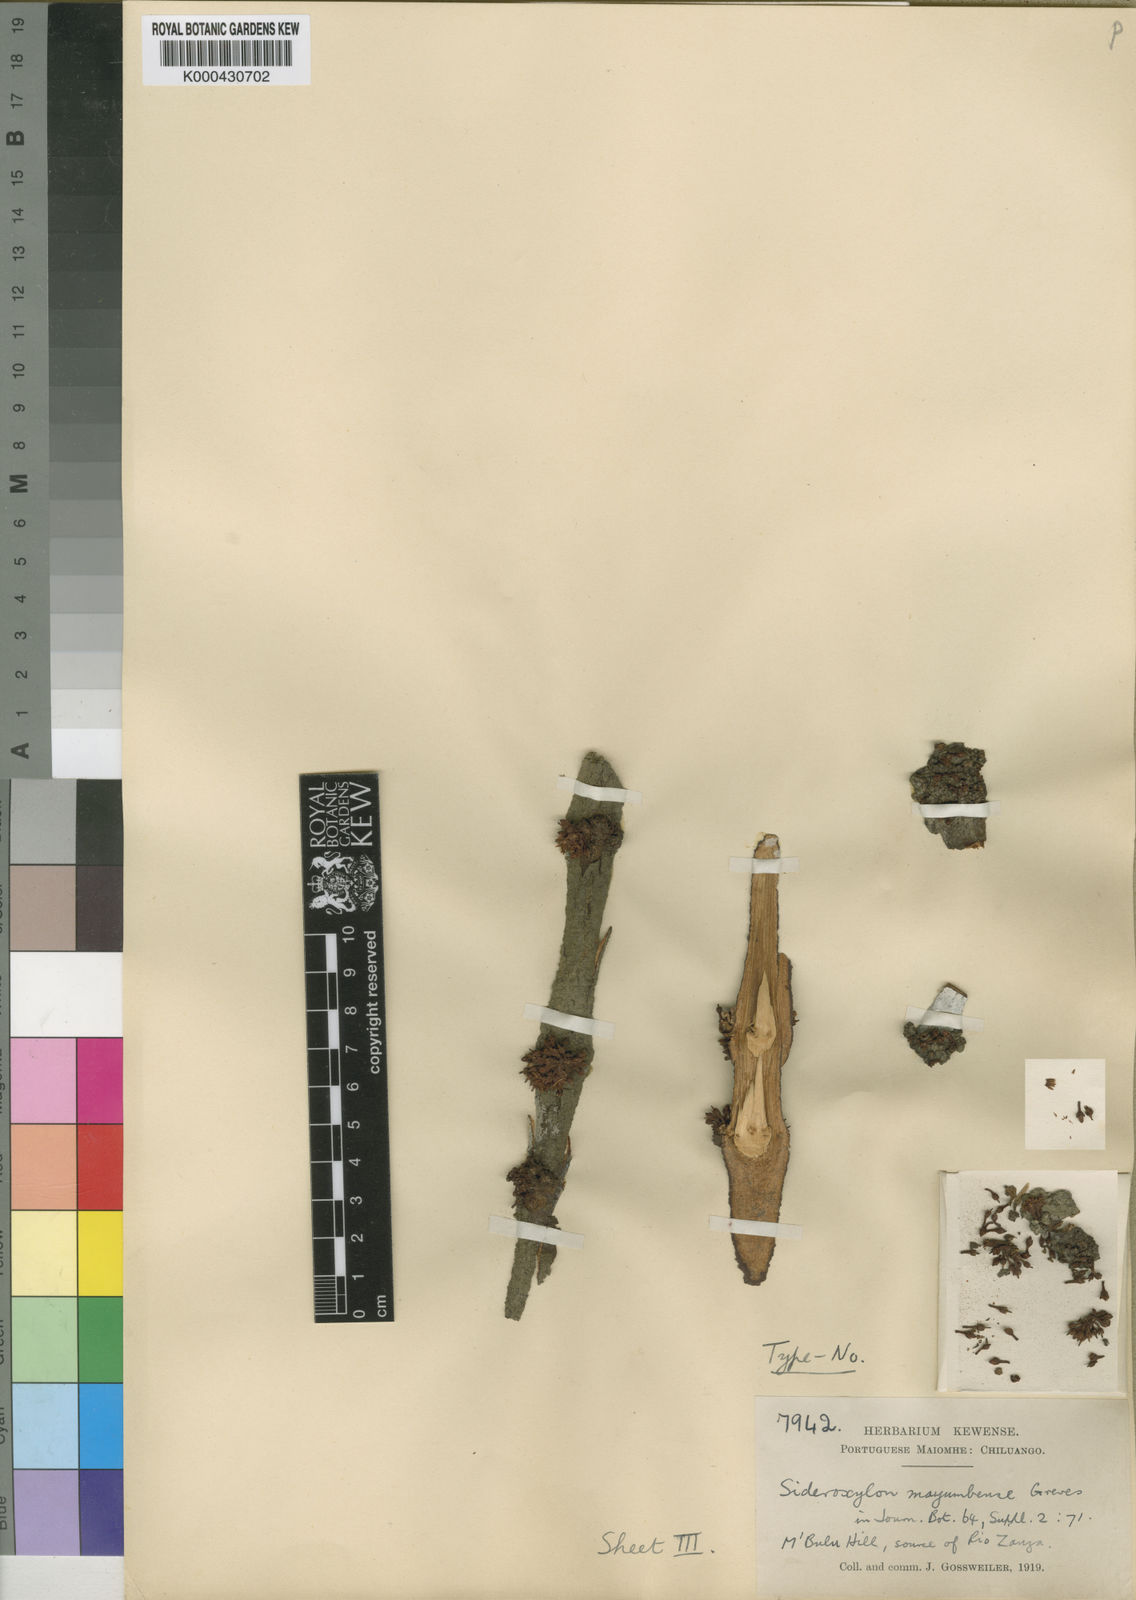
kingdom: Plantae
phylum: Tracheophyta
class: Magnoliopsida
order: Ericales
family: Sapotaceae
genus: Englerophytum
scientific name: Englerophytum
